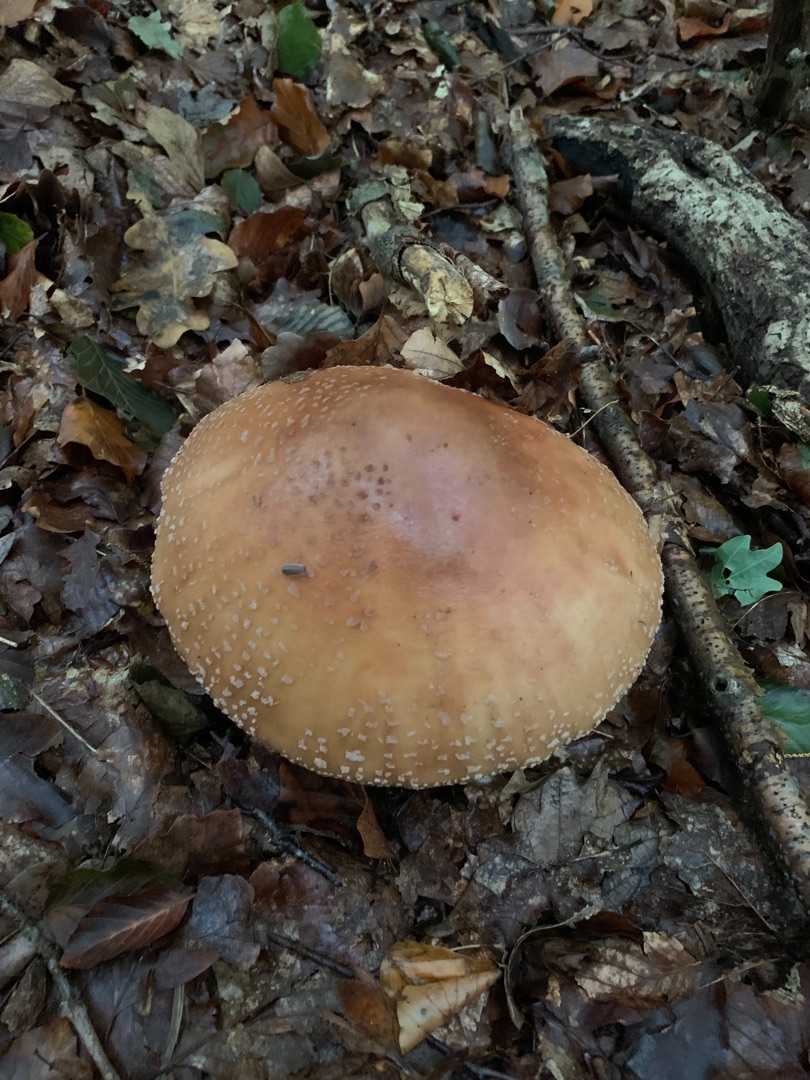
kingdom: Fungi
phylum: Basidiomycota
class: Agaricomycetes
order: Agaricales
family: Amanitaceae
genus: Amanita
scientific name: Amanita rubescens
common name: Rødmende fluesvamp
